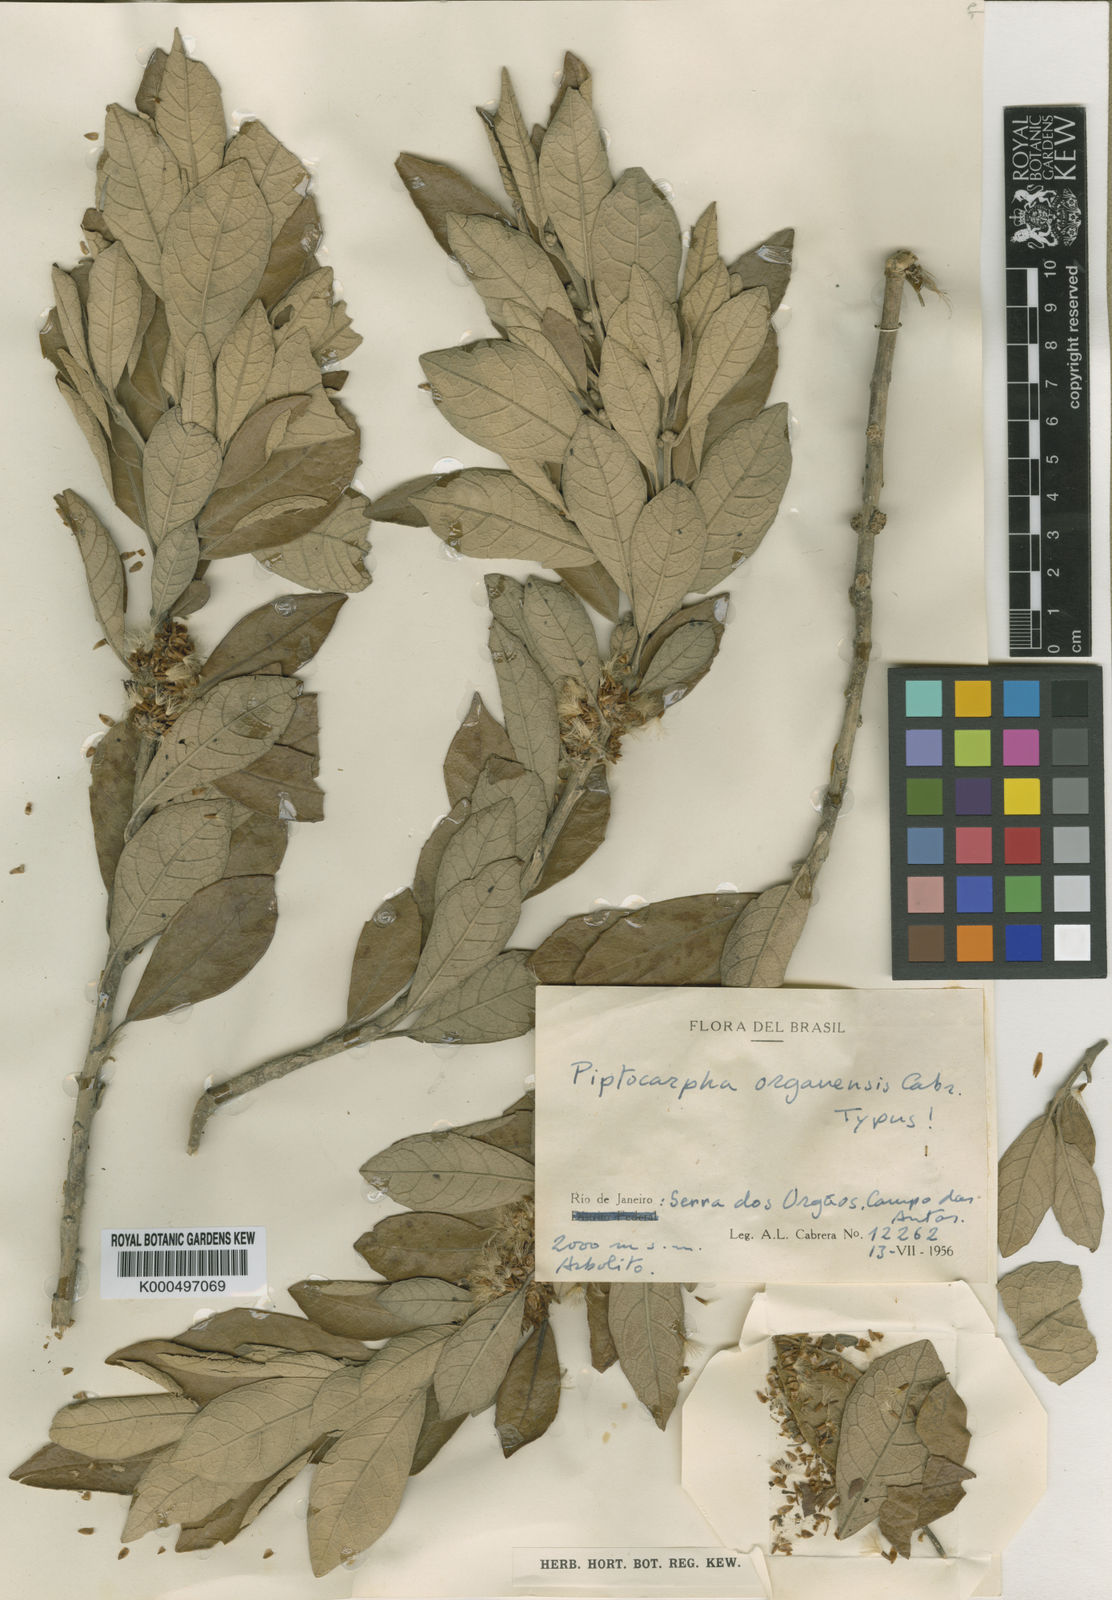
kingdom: Plantae
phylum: Tracheophyta
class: Magnoliopsida
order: Asterales
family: Asteraceae
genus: Piptocarpha
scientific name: Piptocarpha organensis
